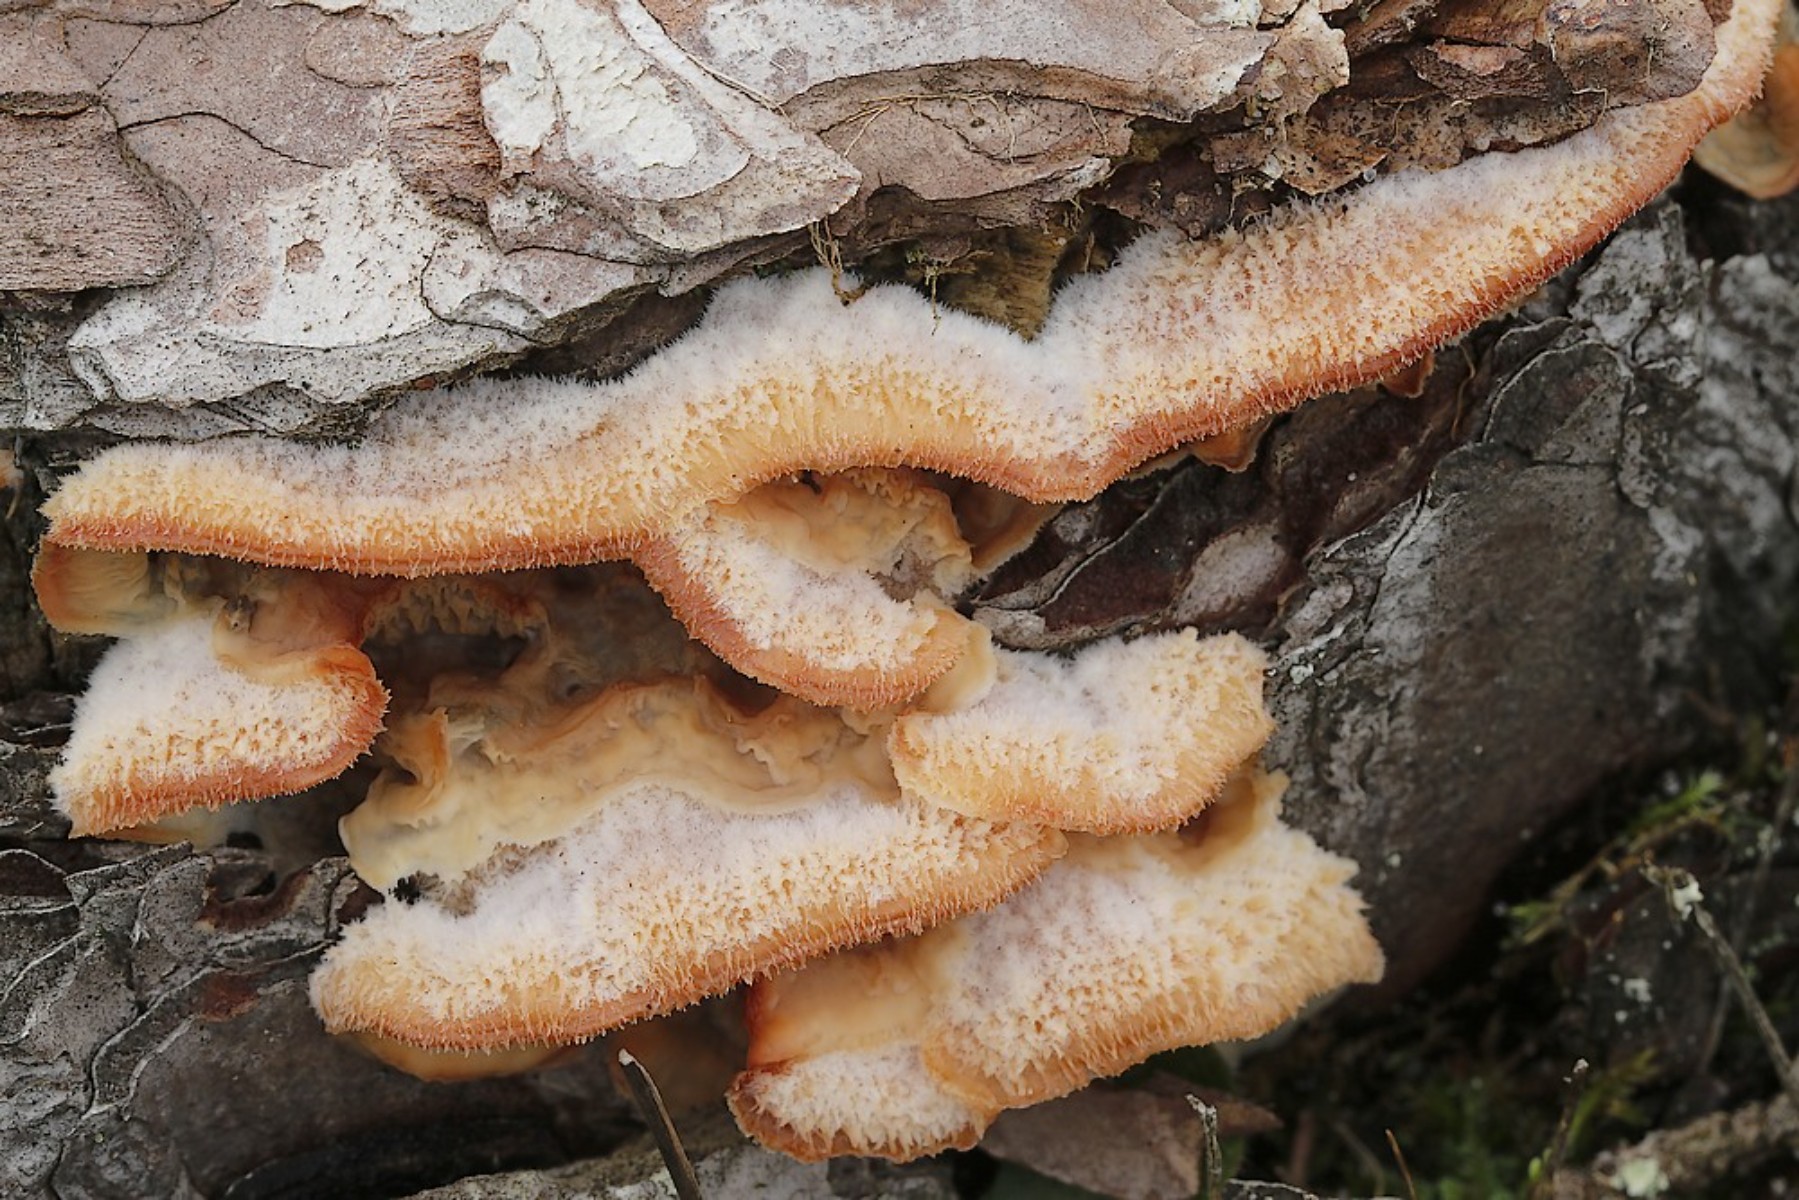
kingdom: Fungi
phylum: Basidiomycota
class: Agaricomycetes
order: Polyporales
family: Meruliaceae
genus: Phlebia
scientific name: Phlebia tremellosa
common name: bævrende åresvamp
